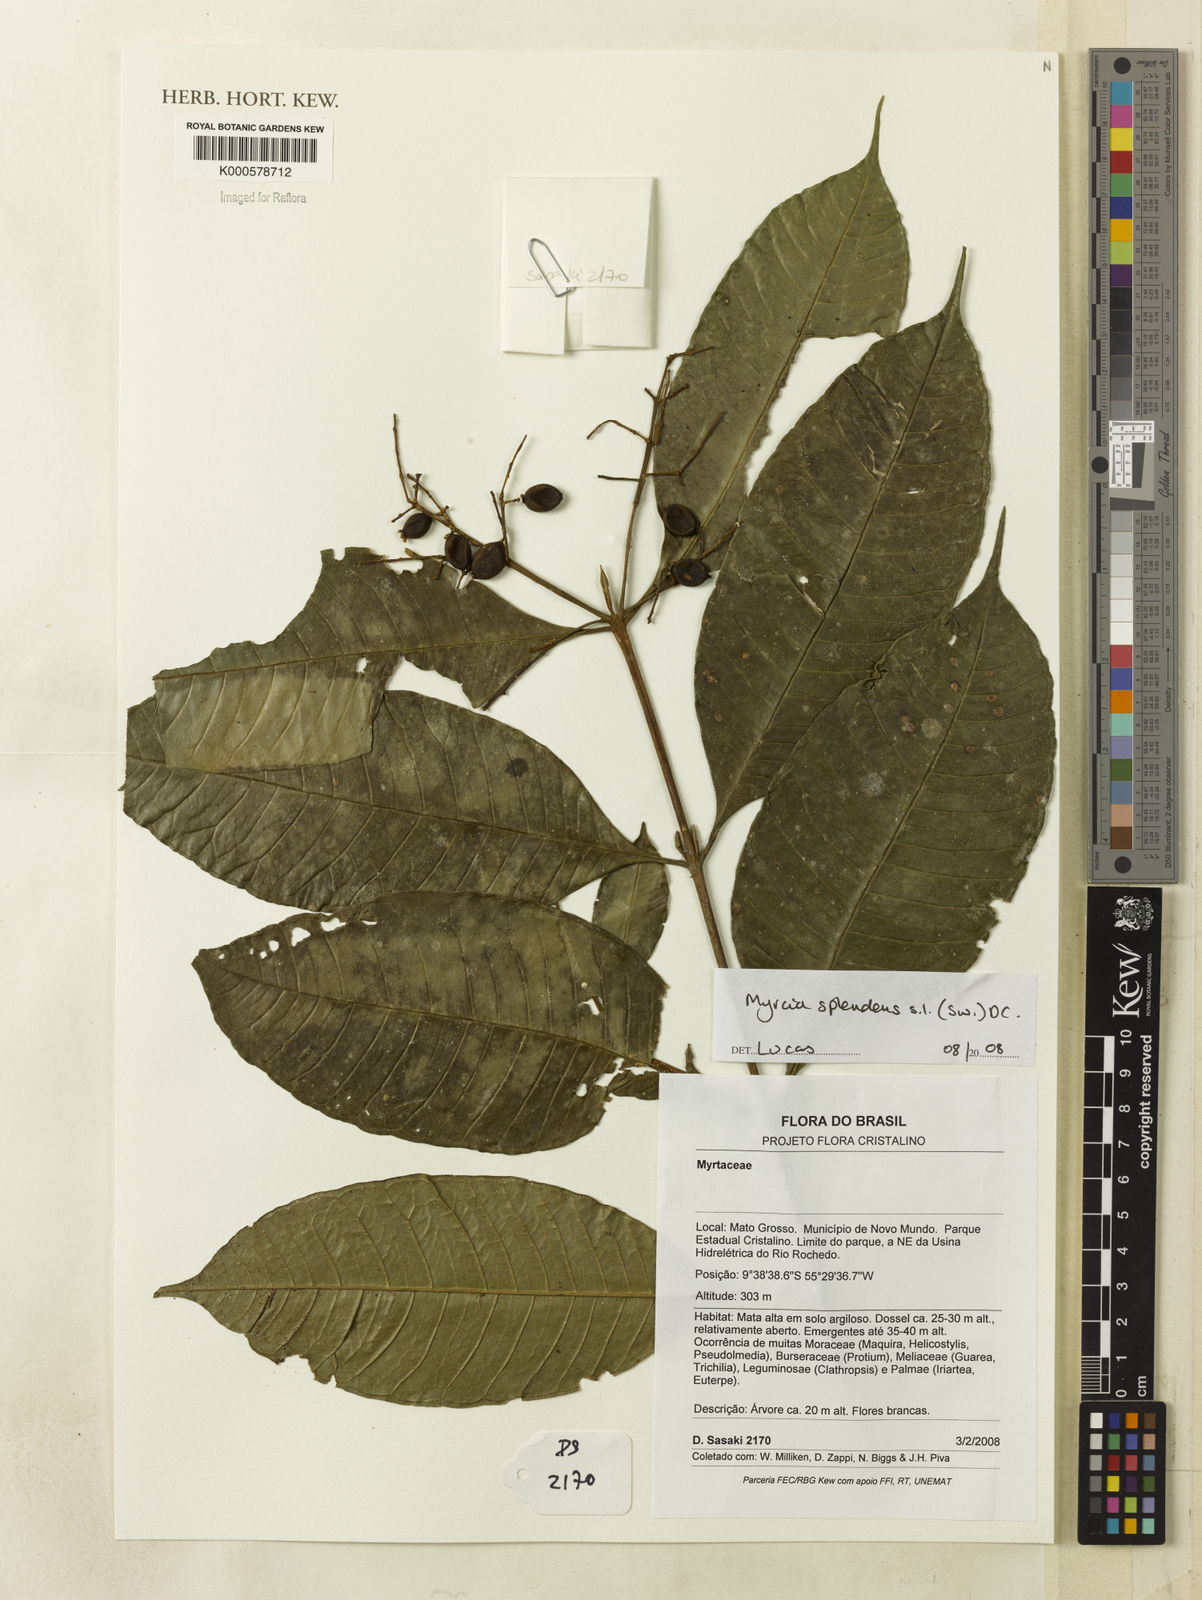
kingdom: Plantae
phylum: Tracheophyta
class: Magnoliopsida
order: Myrtales
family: Myrtaceae
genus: Myrcia
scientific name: Myrcia splendens
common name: Surinam cherry
